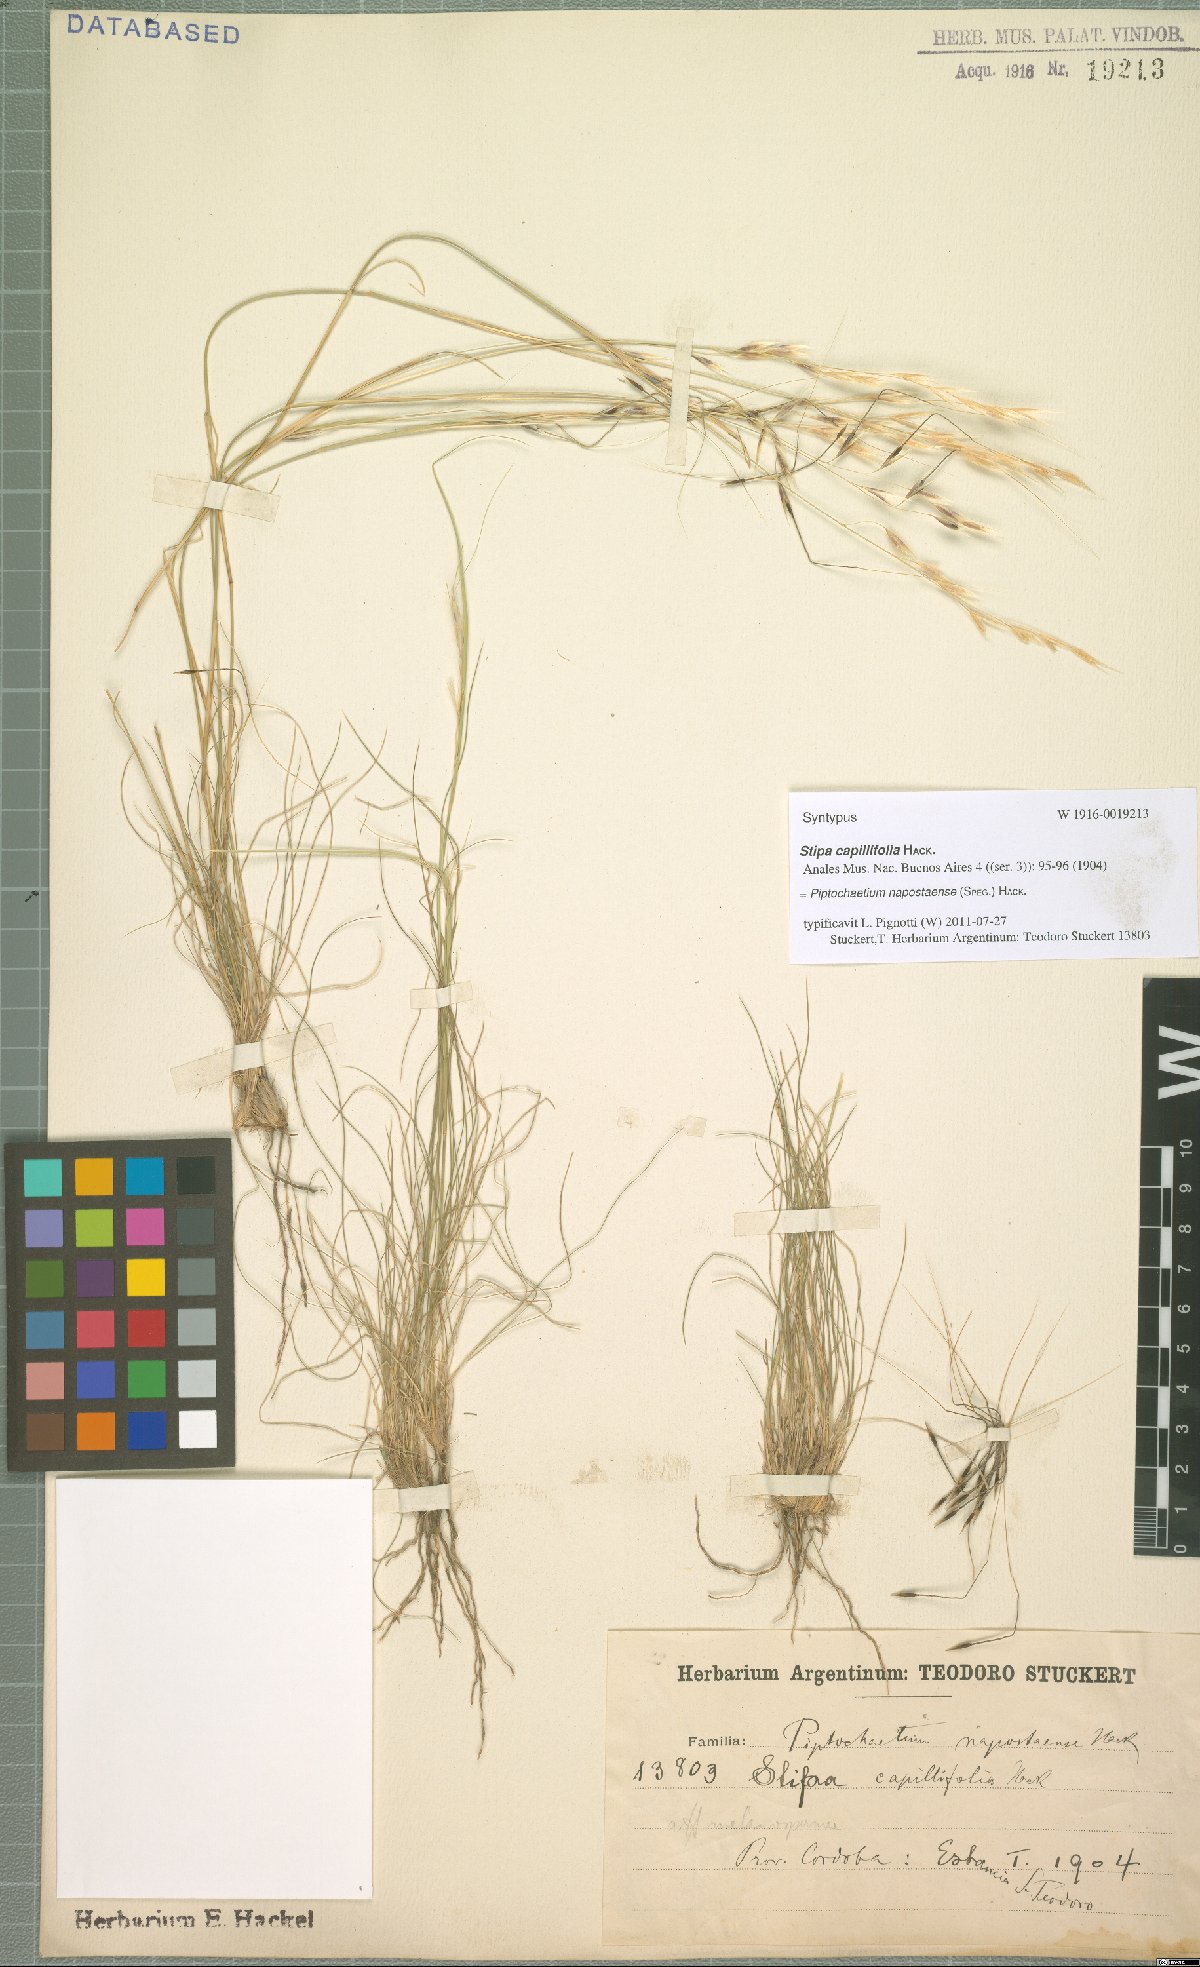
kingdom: Plantae
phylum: Tracheophyta
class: Liliopsida
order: Poales
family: Poaceae
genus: Piptochaetium
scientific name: Piptochaetium napostaense
